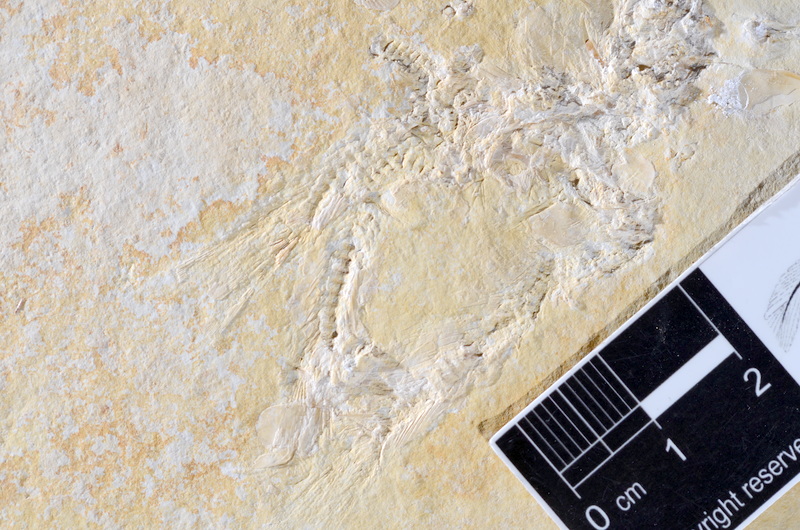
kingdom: Animalia
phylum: Chordata
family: Ascalaboidae
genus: Tharsis
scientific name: Tharsis dubius
